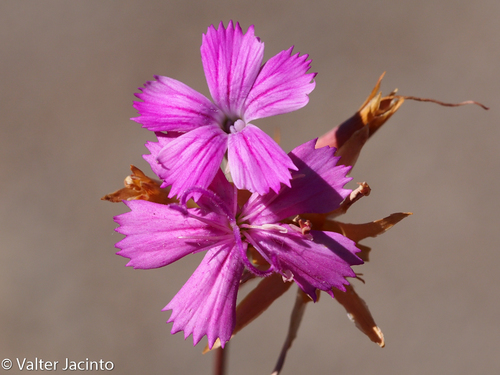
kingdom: Plantae
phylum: Tracheophyta
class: Magnoliopsida
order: Caryophyllales
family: Caryophyllaceae
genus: Dianthus
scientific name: Dianthus lusitanus
